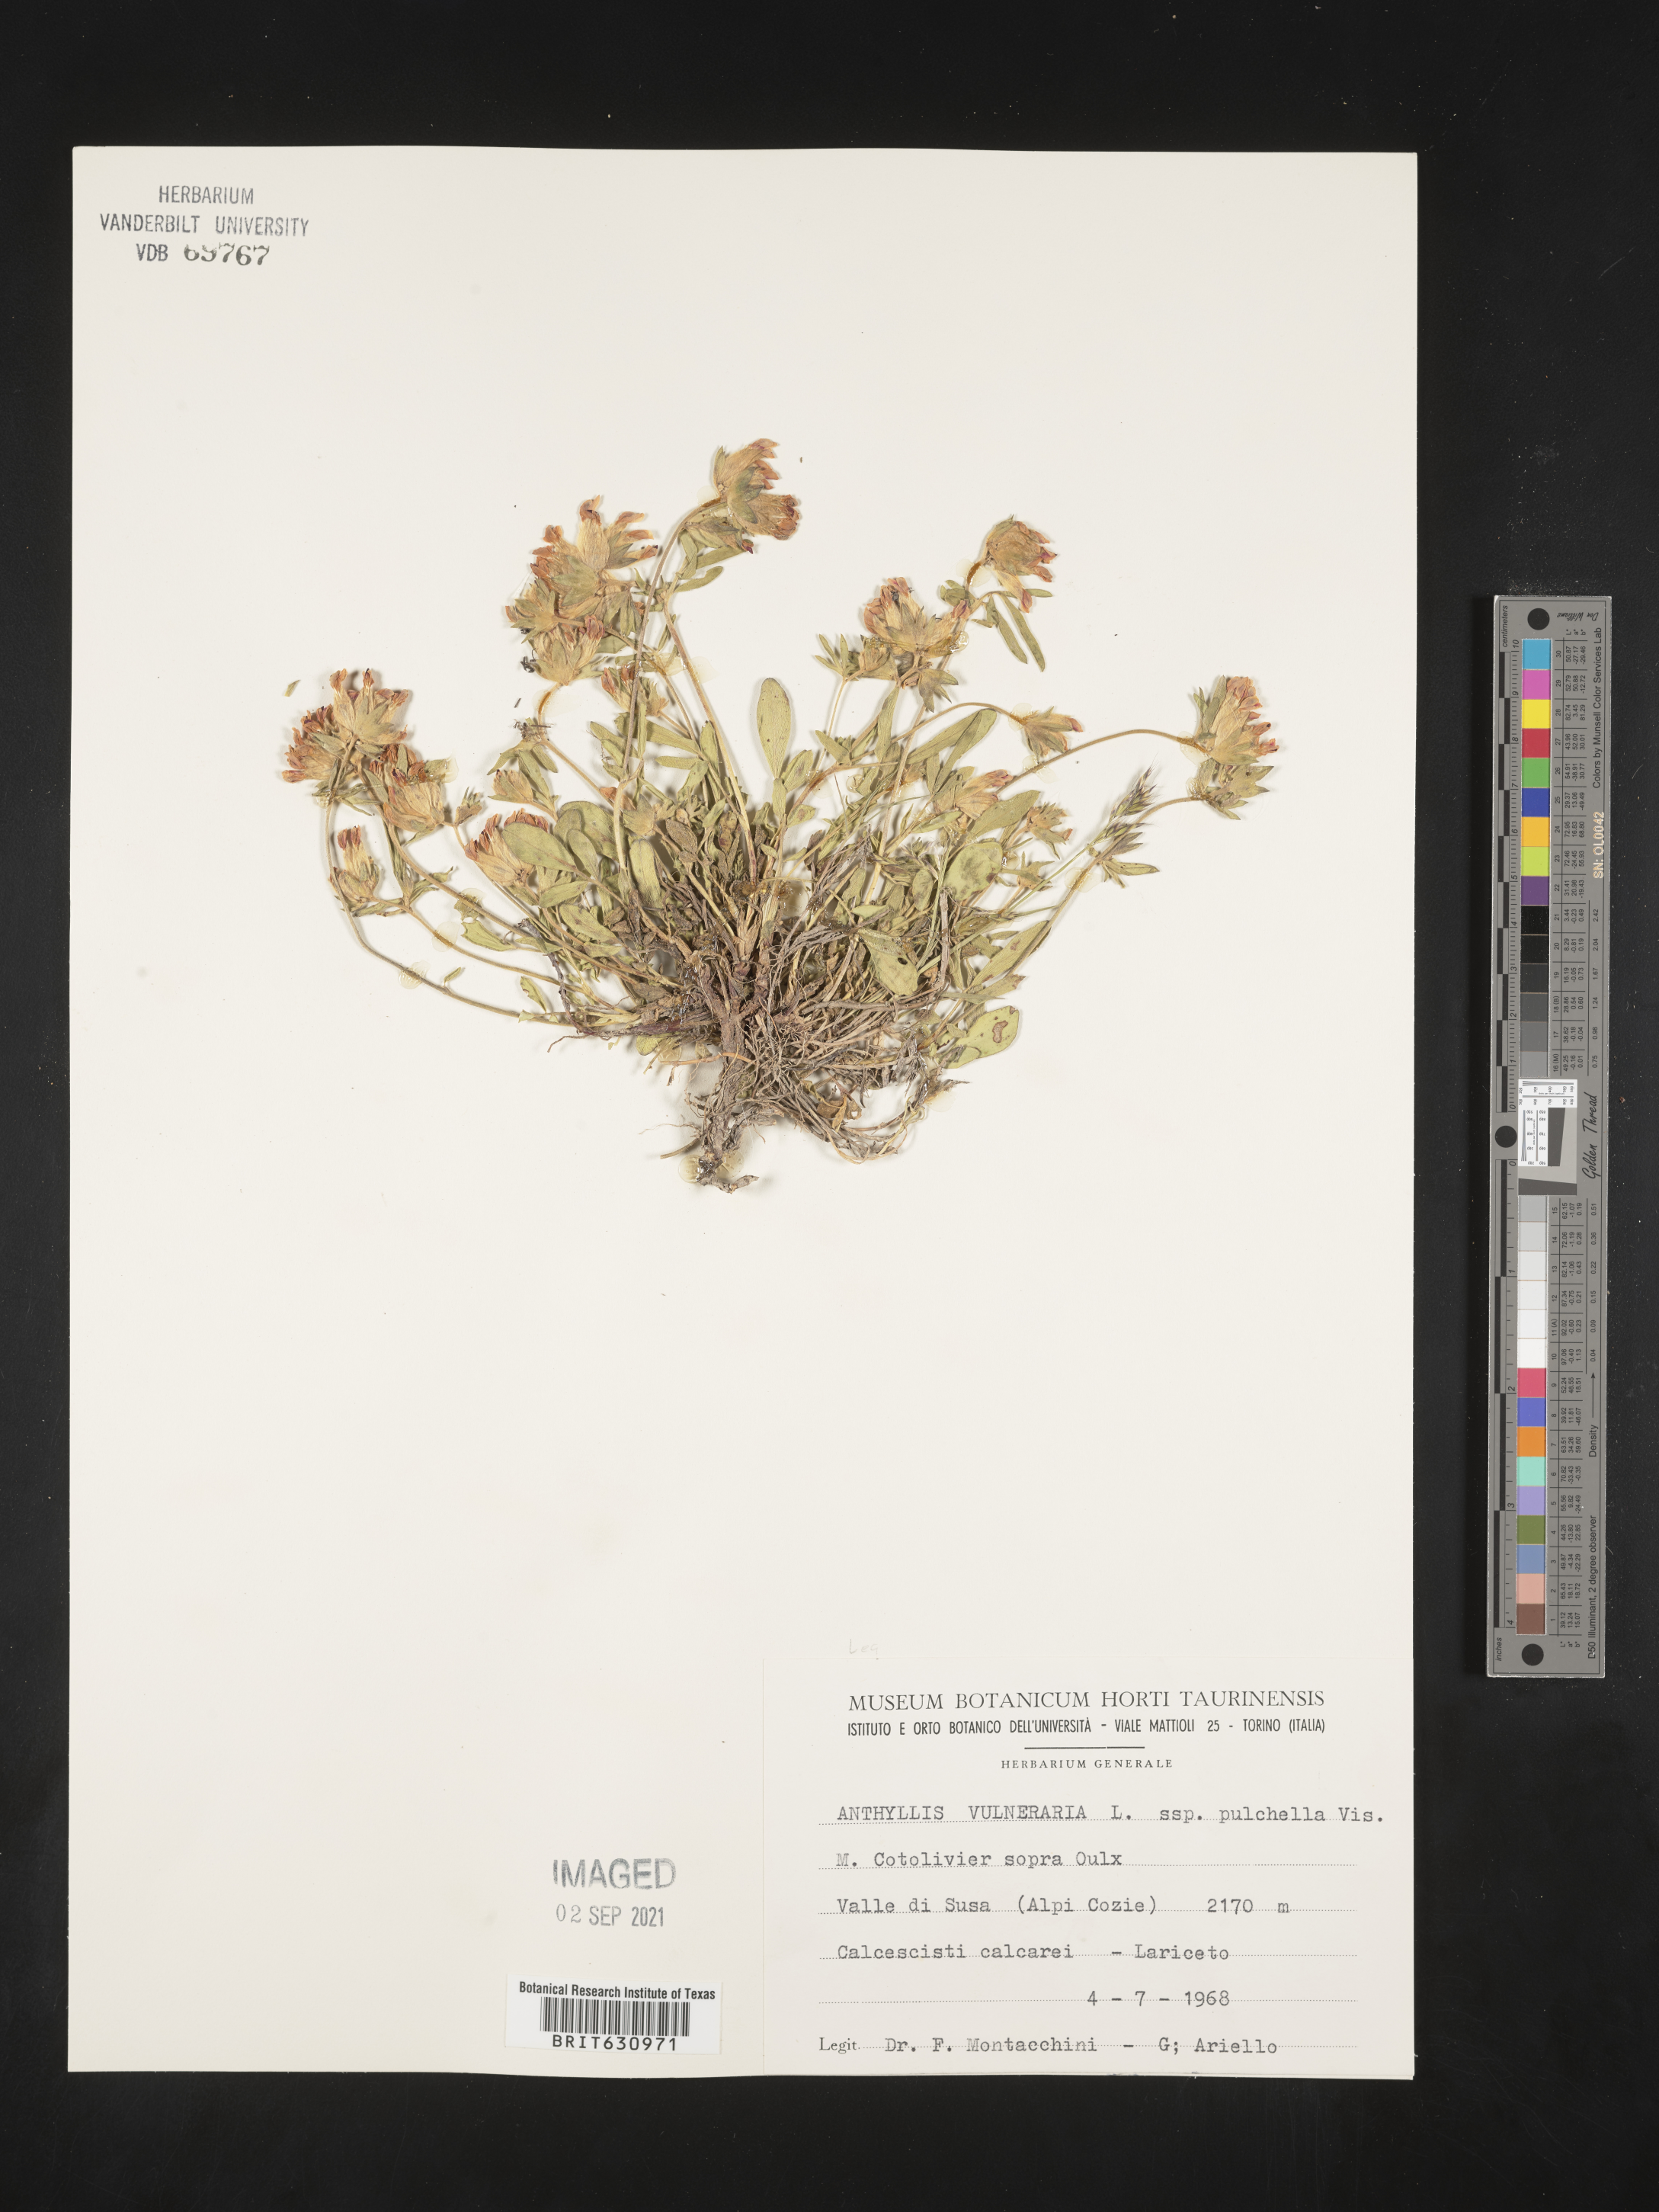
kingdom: Plantae
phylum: Tracheophyta
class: Magnoliopsida
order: Fabales
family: Fabaceae
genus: Anthyllis
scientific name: Anthyllis
